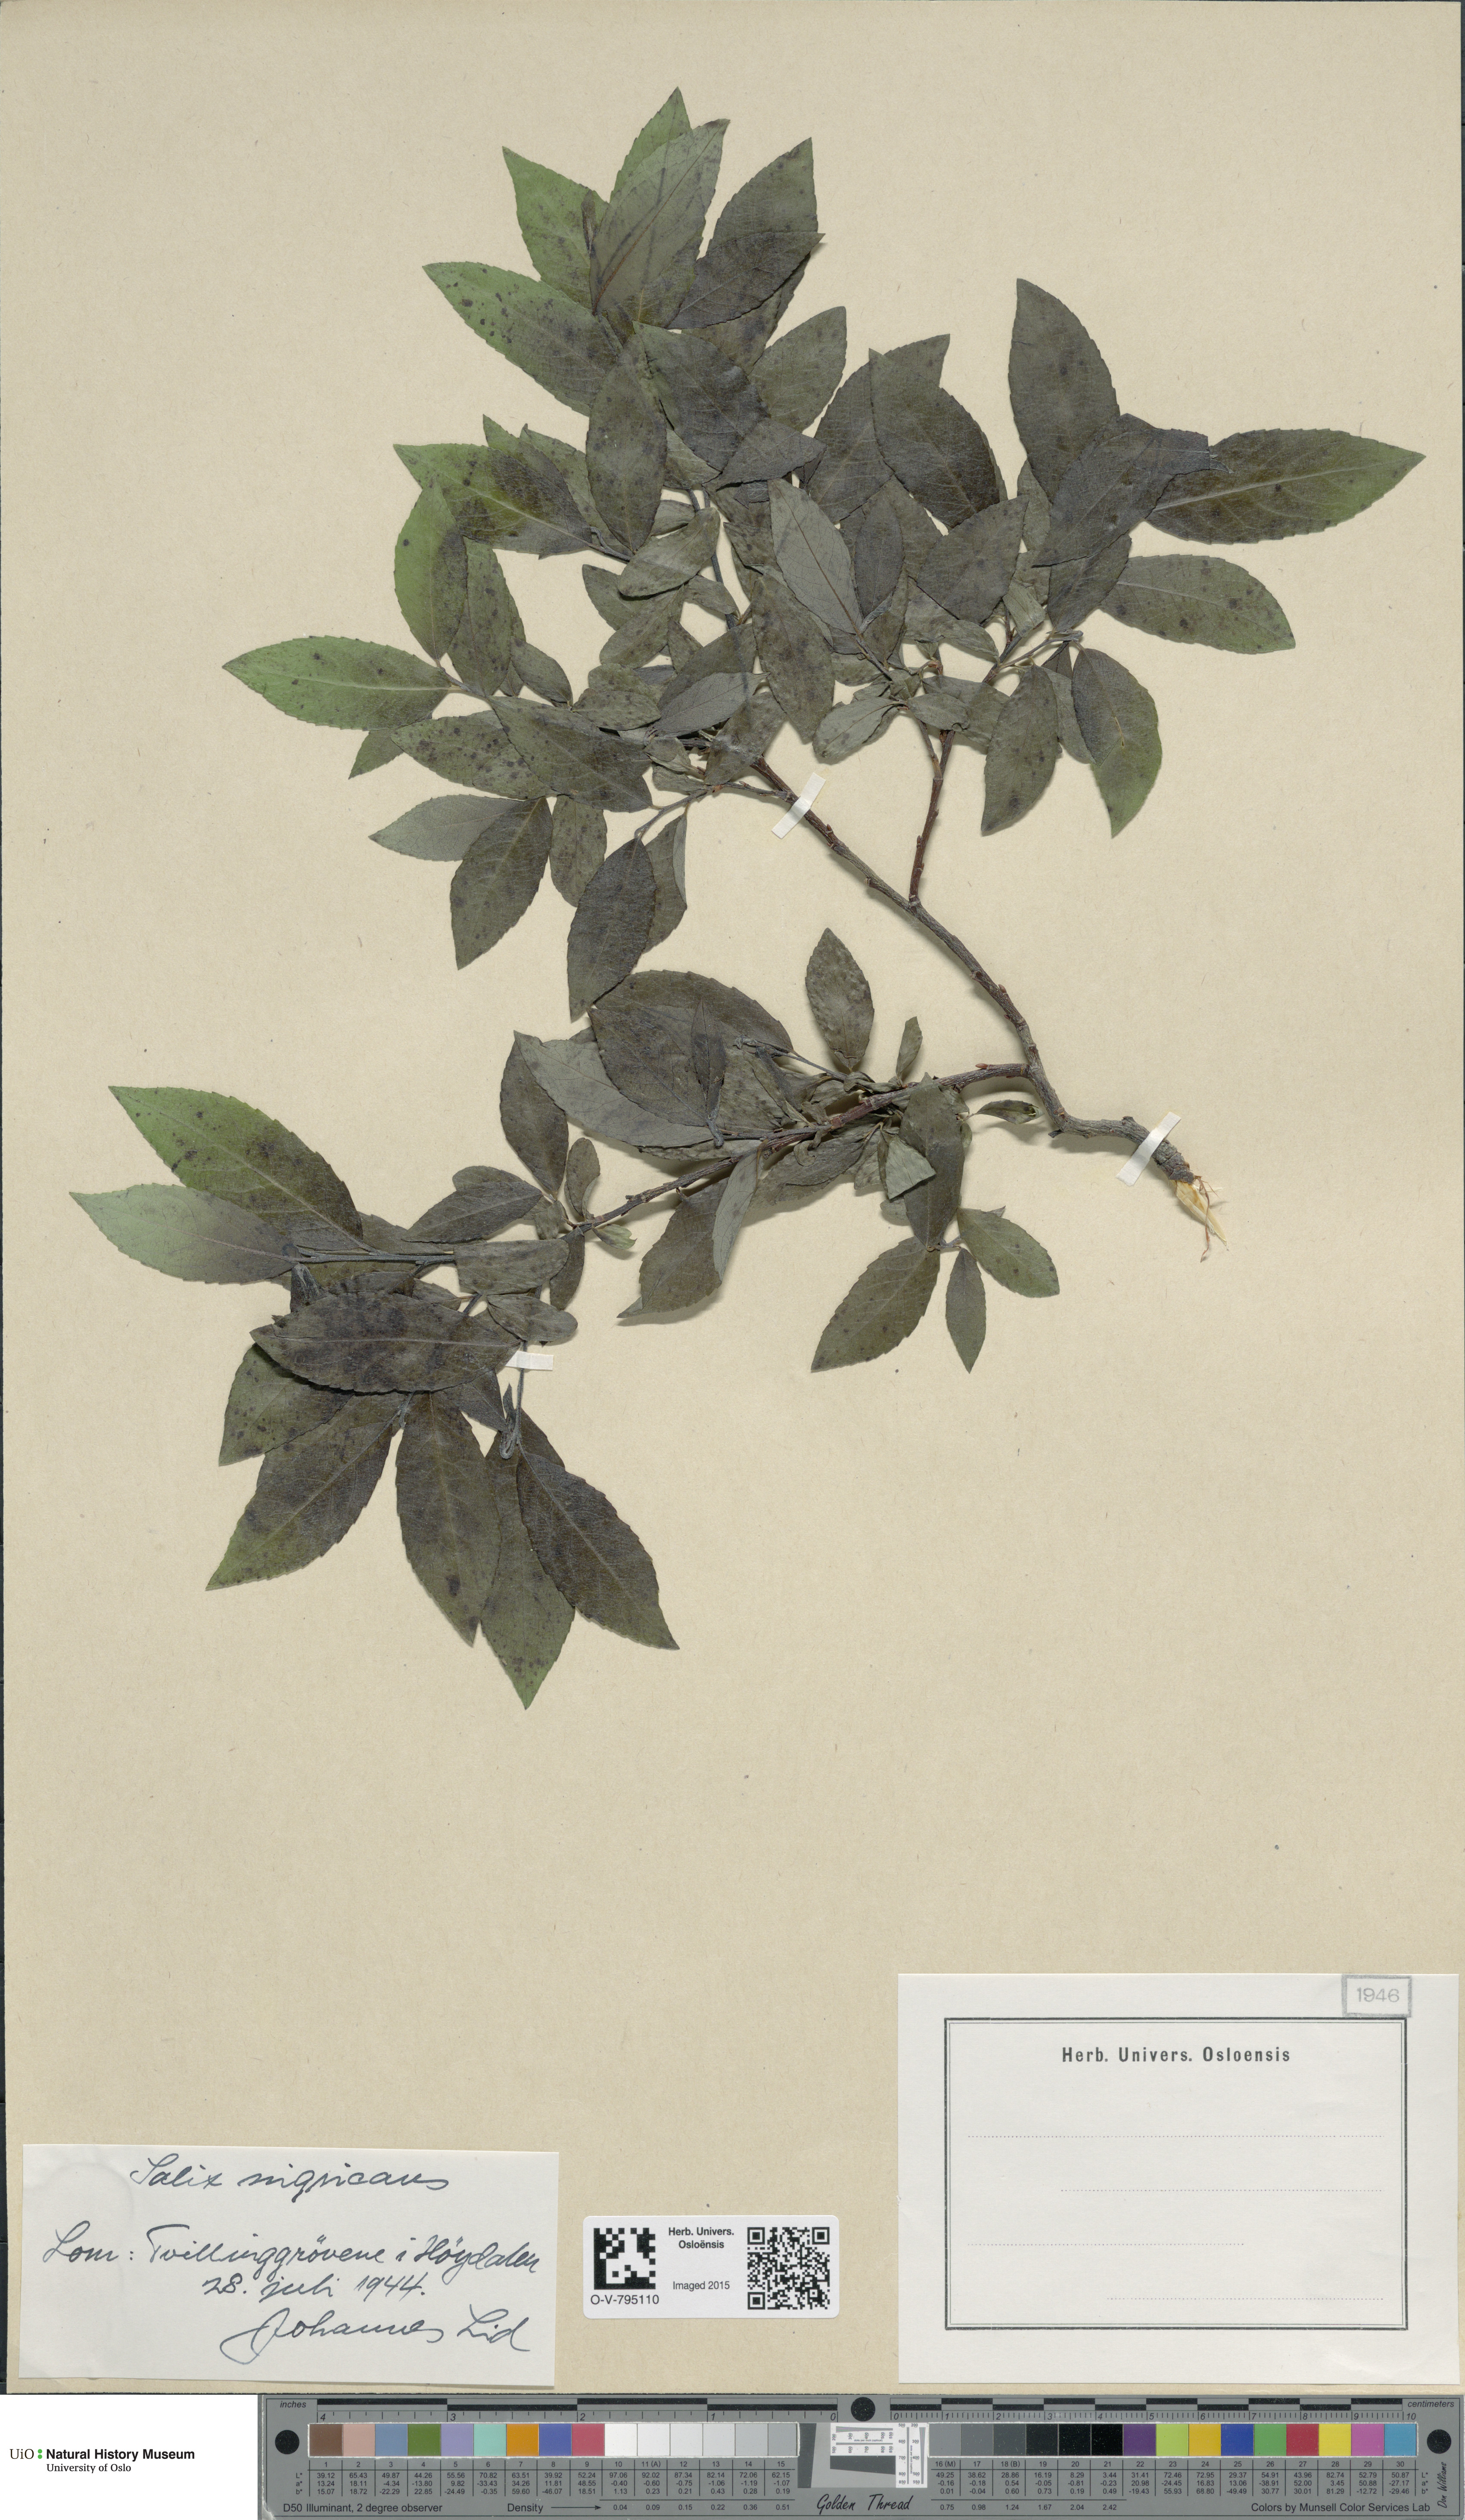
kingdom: Plantae
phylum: Tracheophyta
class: Magnoliopsida
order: Malpighiales
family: Salicaceae
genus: Salix
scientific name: Salix myrsinifolia
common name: Dark-leaved willow
